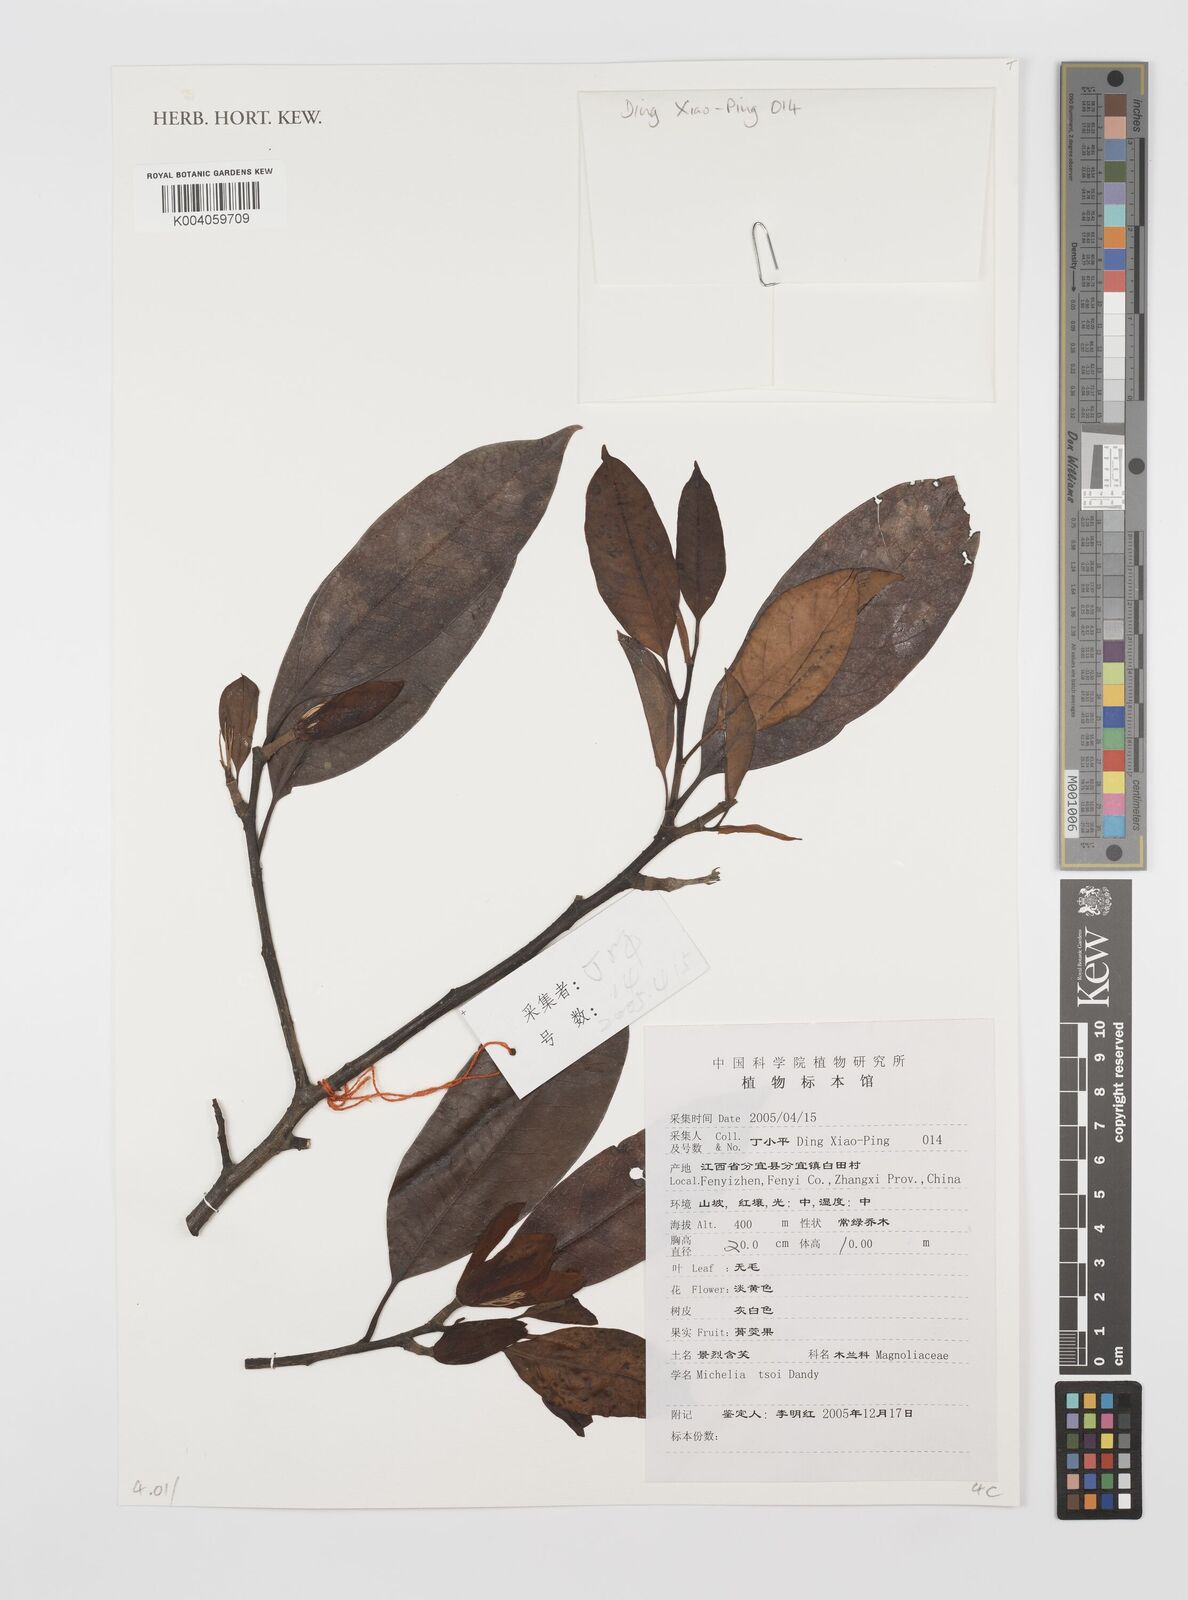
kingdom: Plantae
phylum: Tracheophyta
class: Magnoliopsida
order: Magnoliales
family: Magnoliaceae
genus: Magnolia
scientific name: Magnolia
